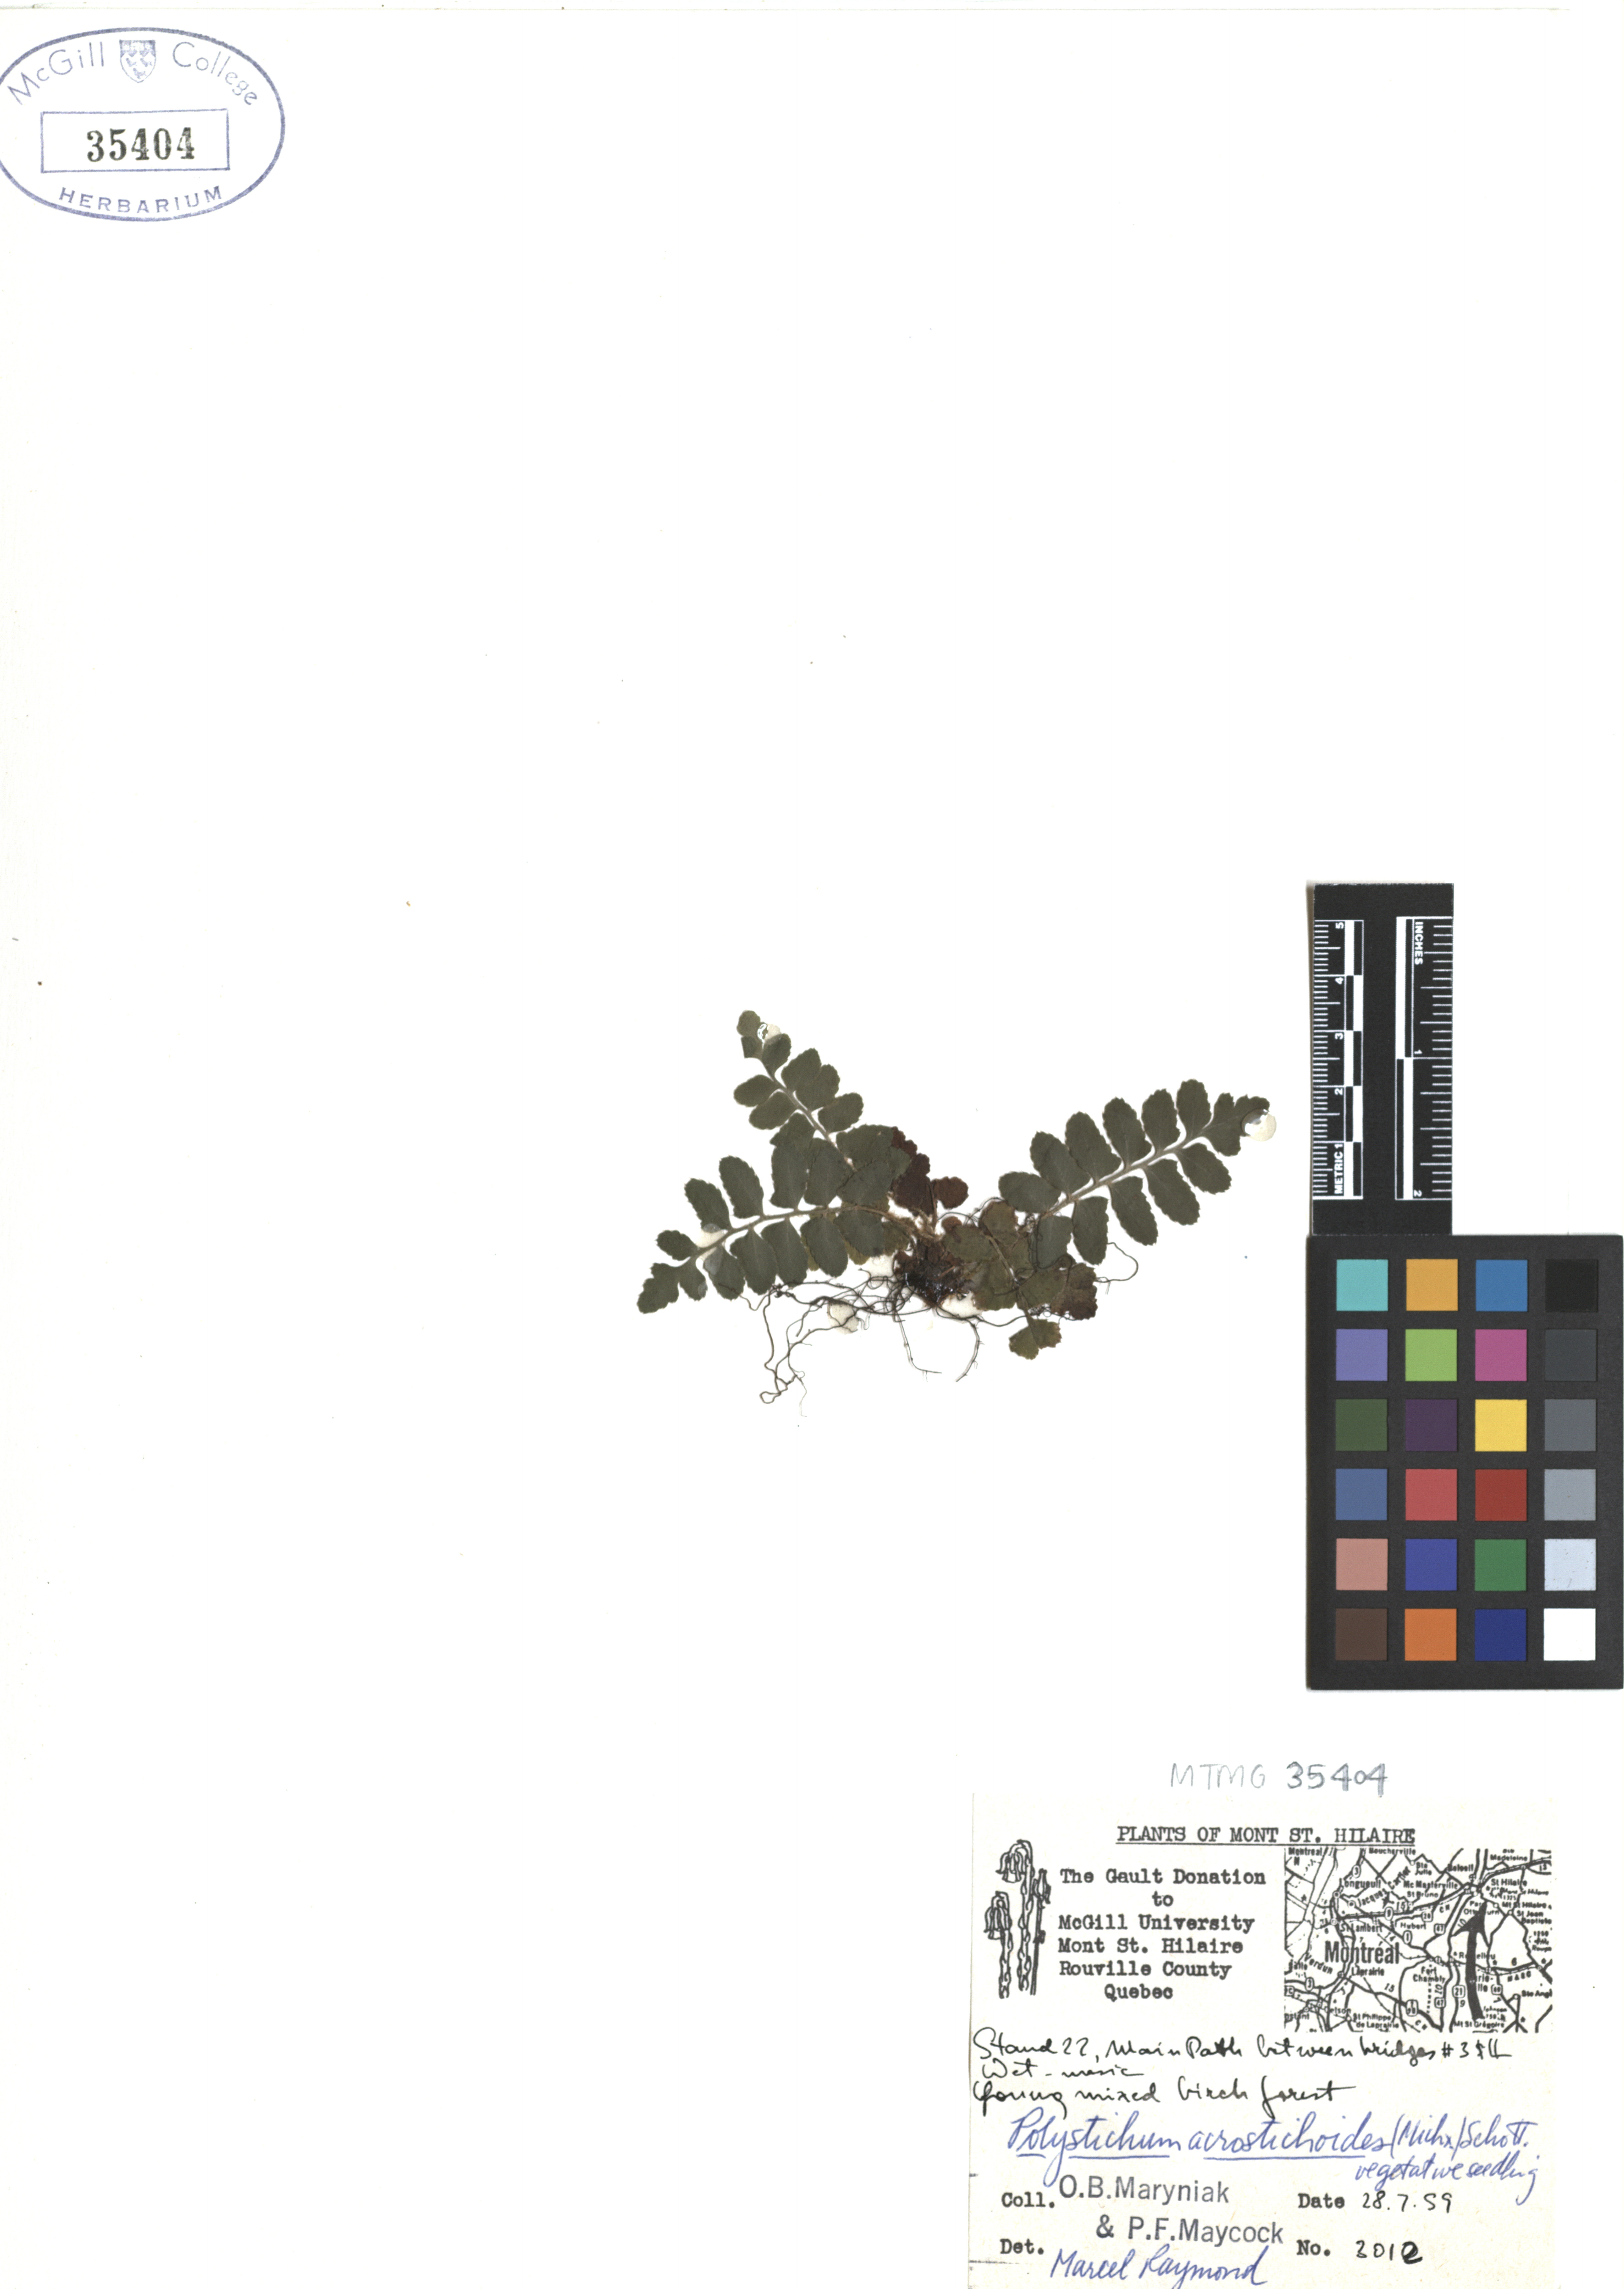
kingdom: Plantae
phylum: Tracheophyta
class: Polypodiopsida
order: Polypodiales
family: Dryopteridaceae
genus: Polystichum
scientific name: Polystichum acrostichoides
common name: Christmas fern
